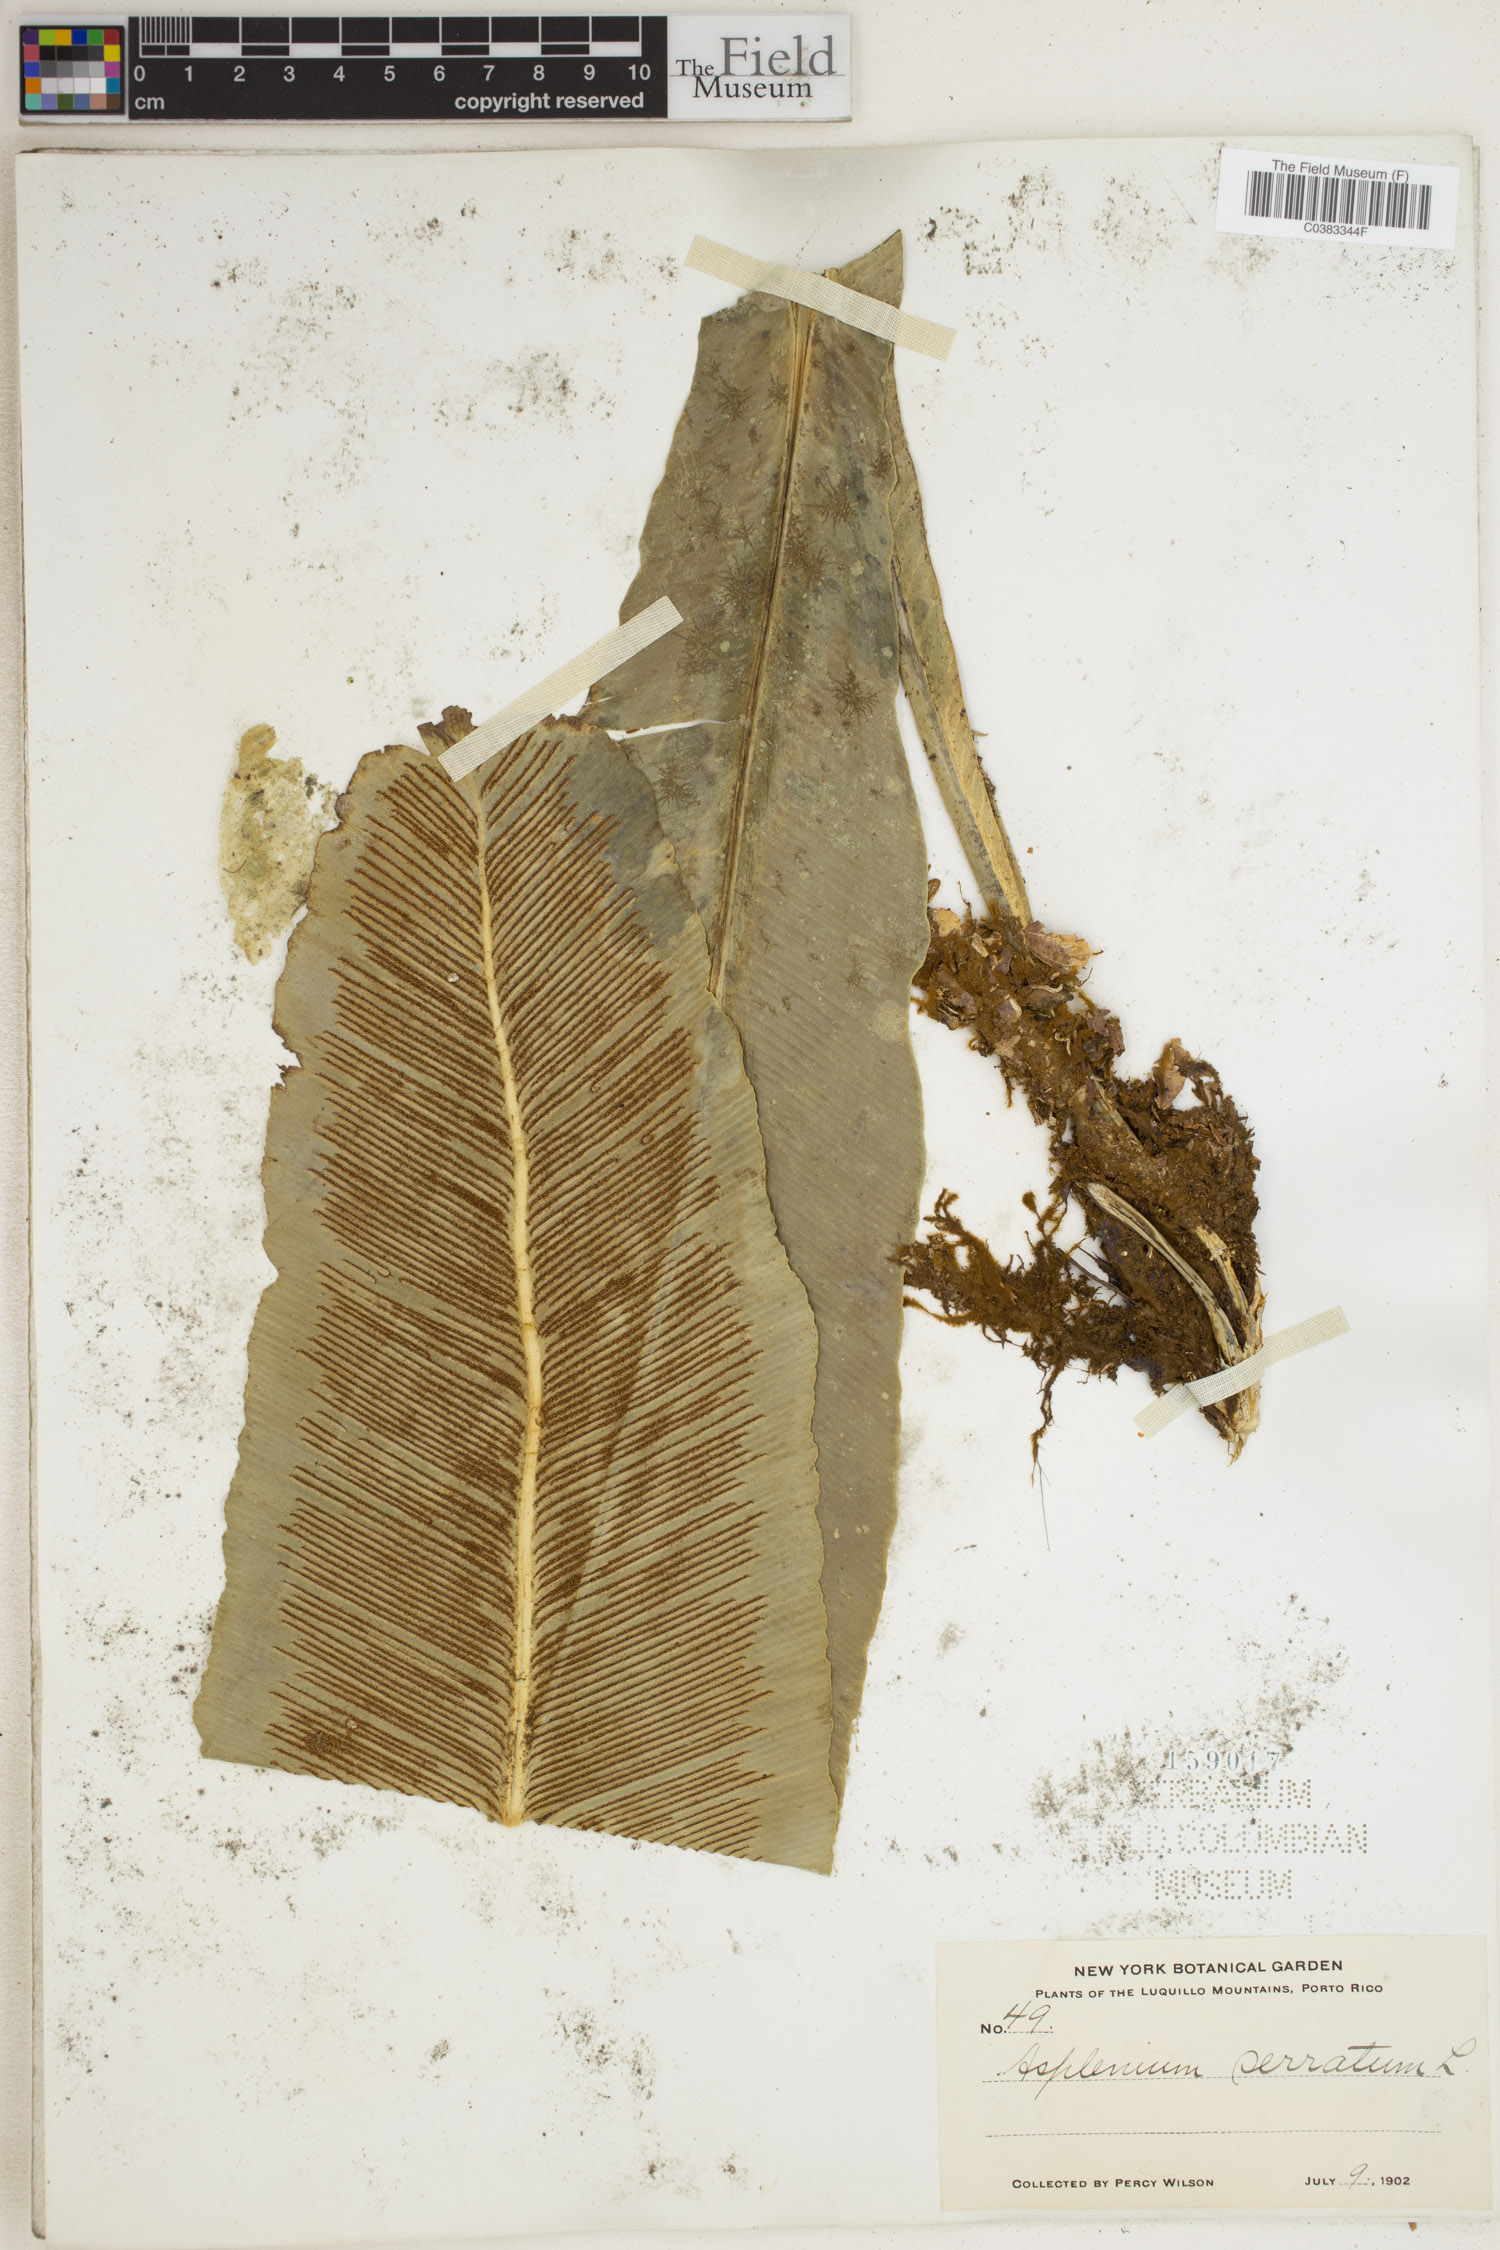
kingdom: Plantae
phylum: Tracheophyta
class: Polypodiopsida
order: Polypodiales
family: Aspleniaceae
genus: Asplenium
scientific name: Asplenium serratum
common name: Wild birdnest fern
